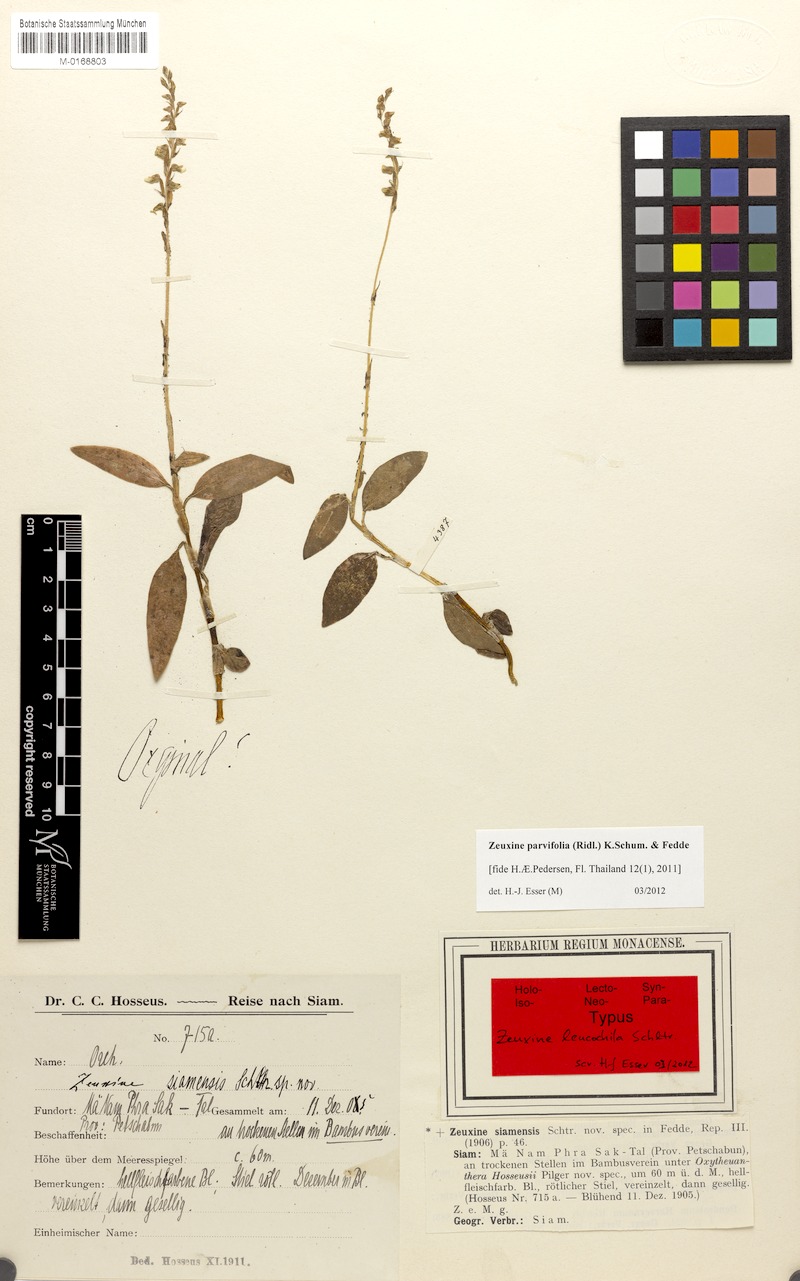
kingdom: Plantae
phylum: Tracheophyta
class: Liliopsida
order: Asparagales
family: Orchidaceae
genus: Zeuxine
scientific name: Zeuxine parvifolia
